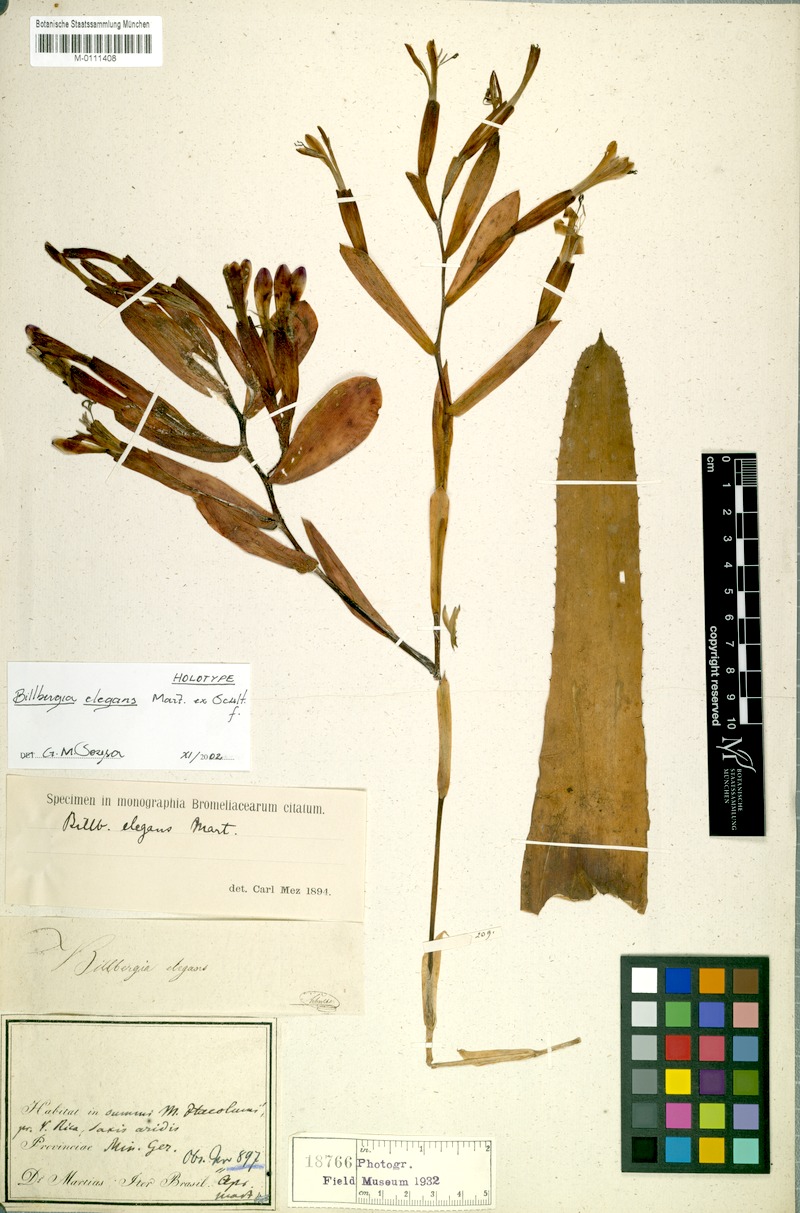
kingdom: Plantae
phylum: Tracheophyta
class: Liliopsida
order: Poales
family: Bromeliaceae
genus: Billbergia
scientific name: Billbergia speciosa
